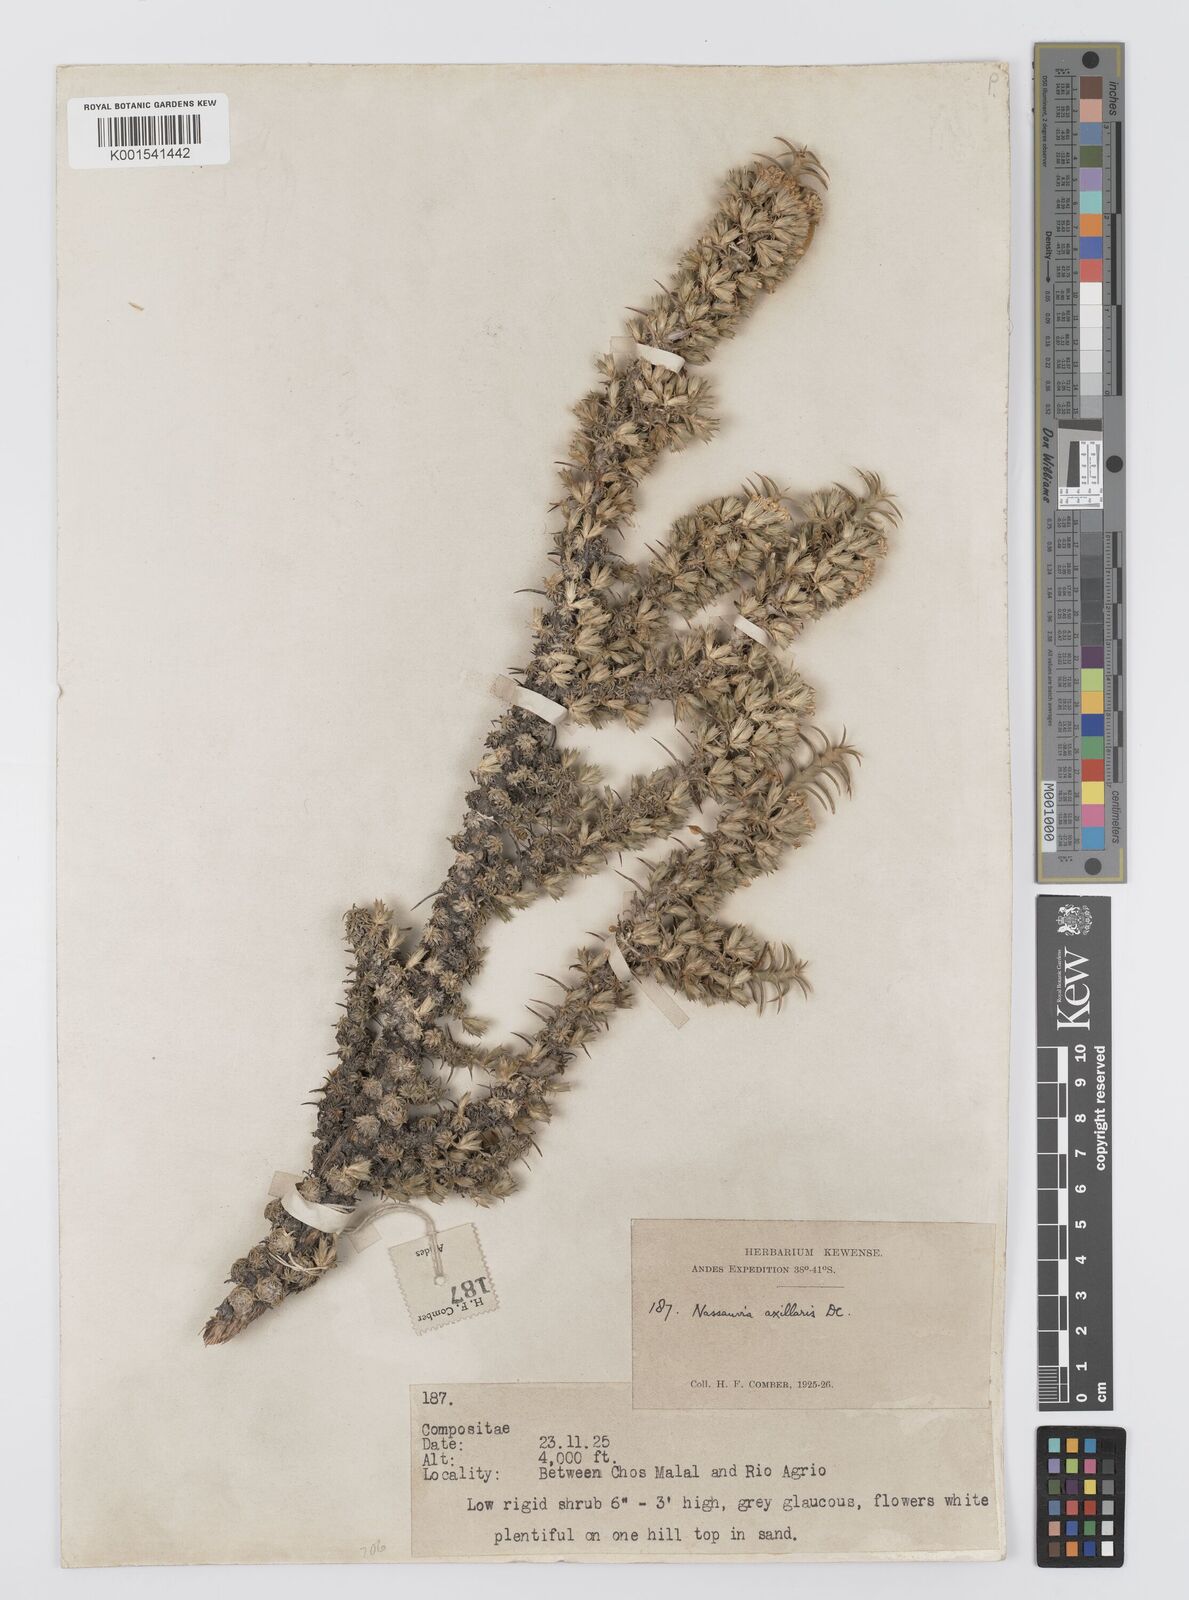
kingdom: Plantae
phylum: Tracheophyta
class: Magnoliopsida
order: Asterales
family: Asteraceae
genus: Nassauvia
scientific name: Nassauvia axillaris
